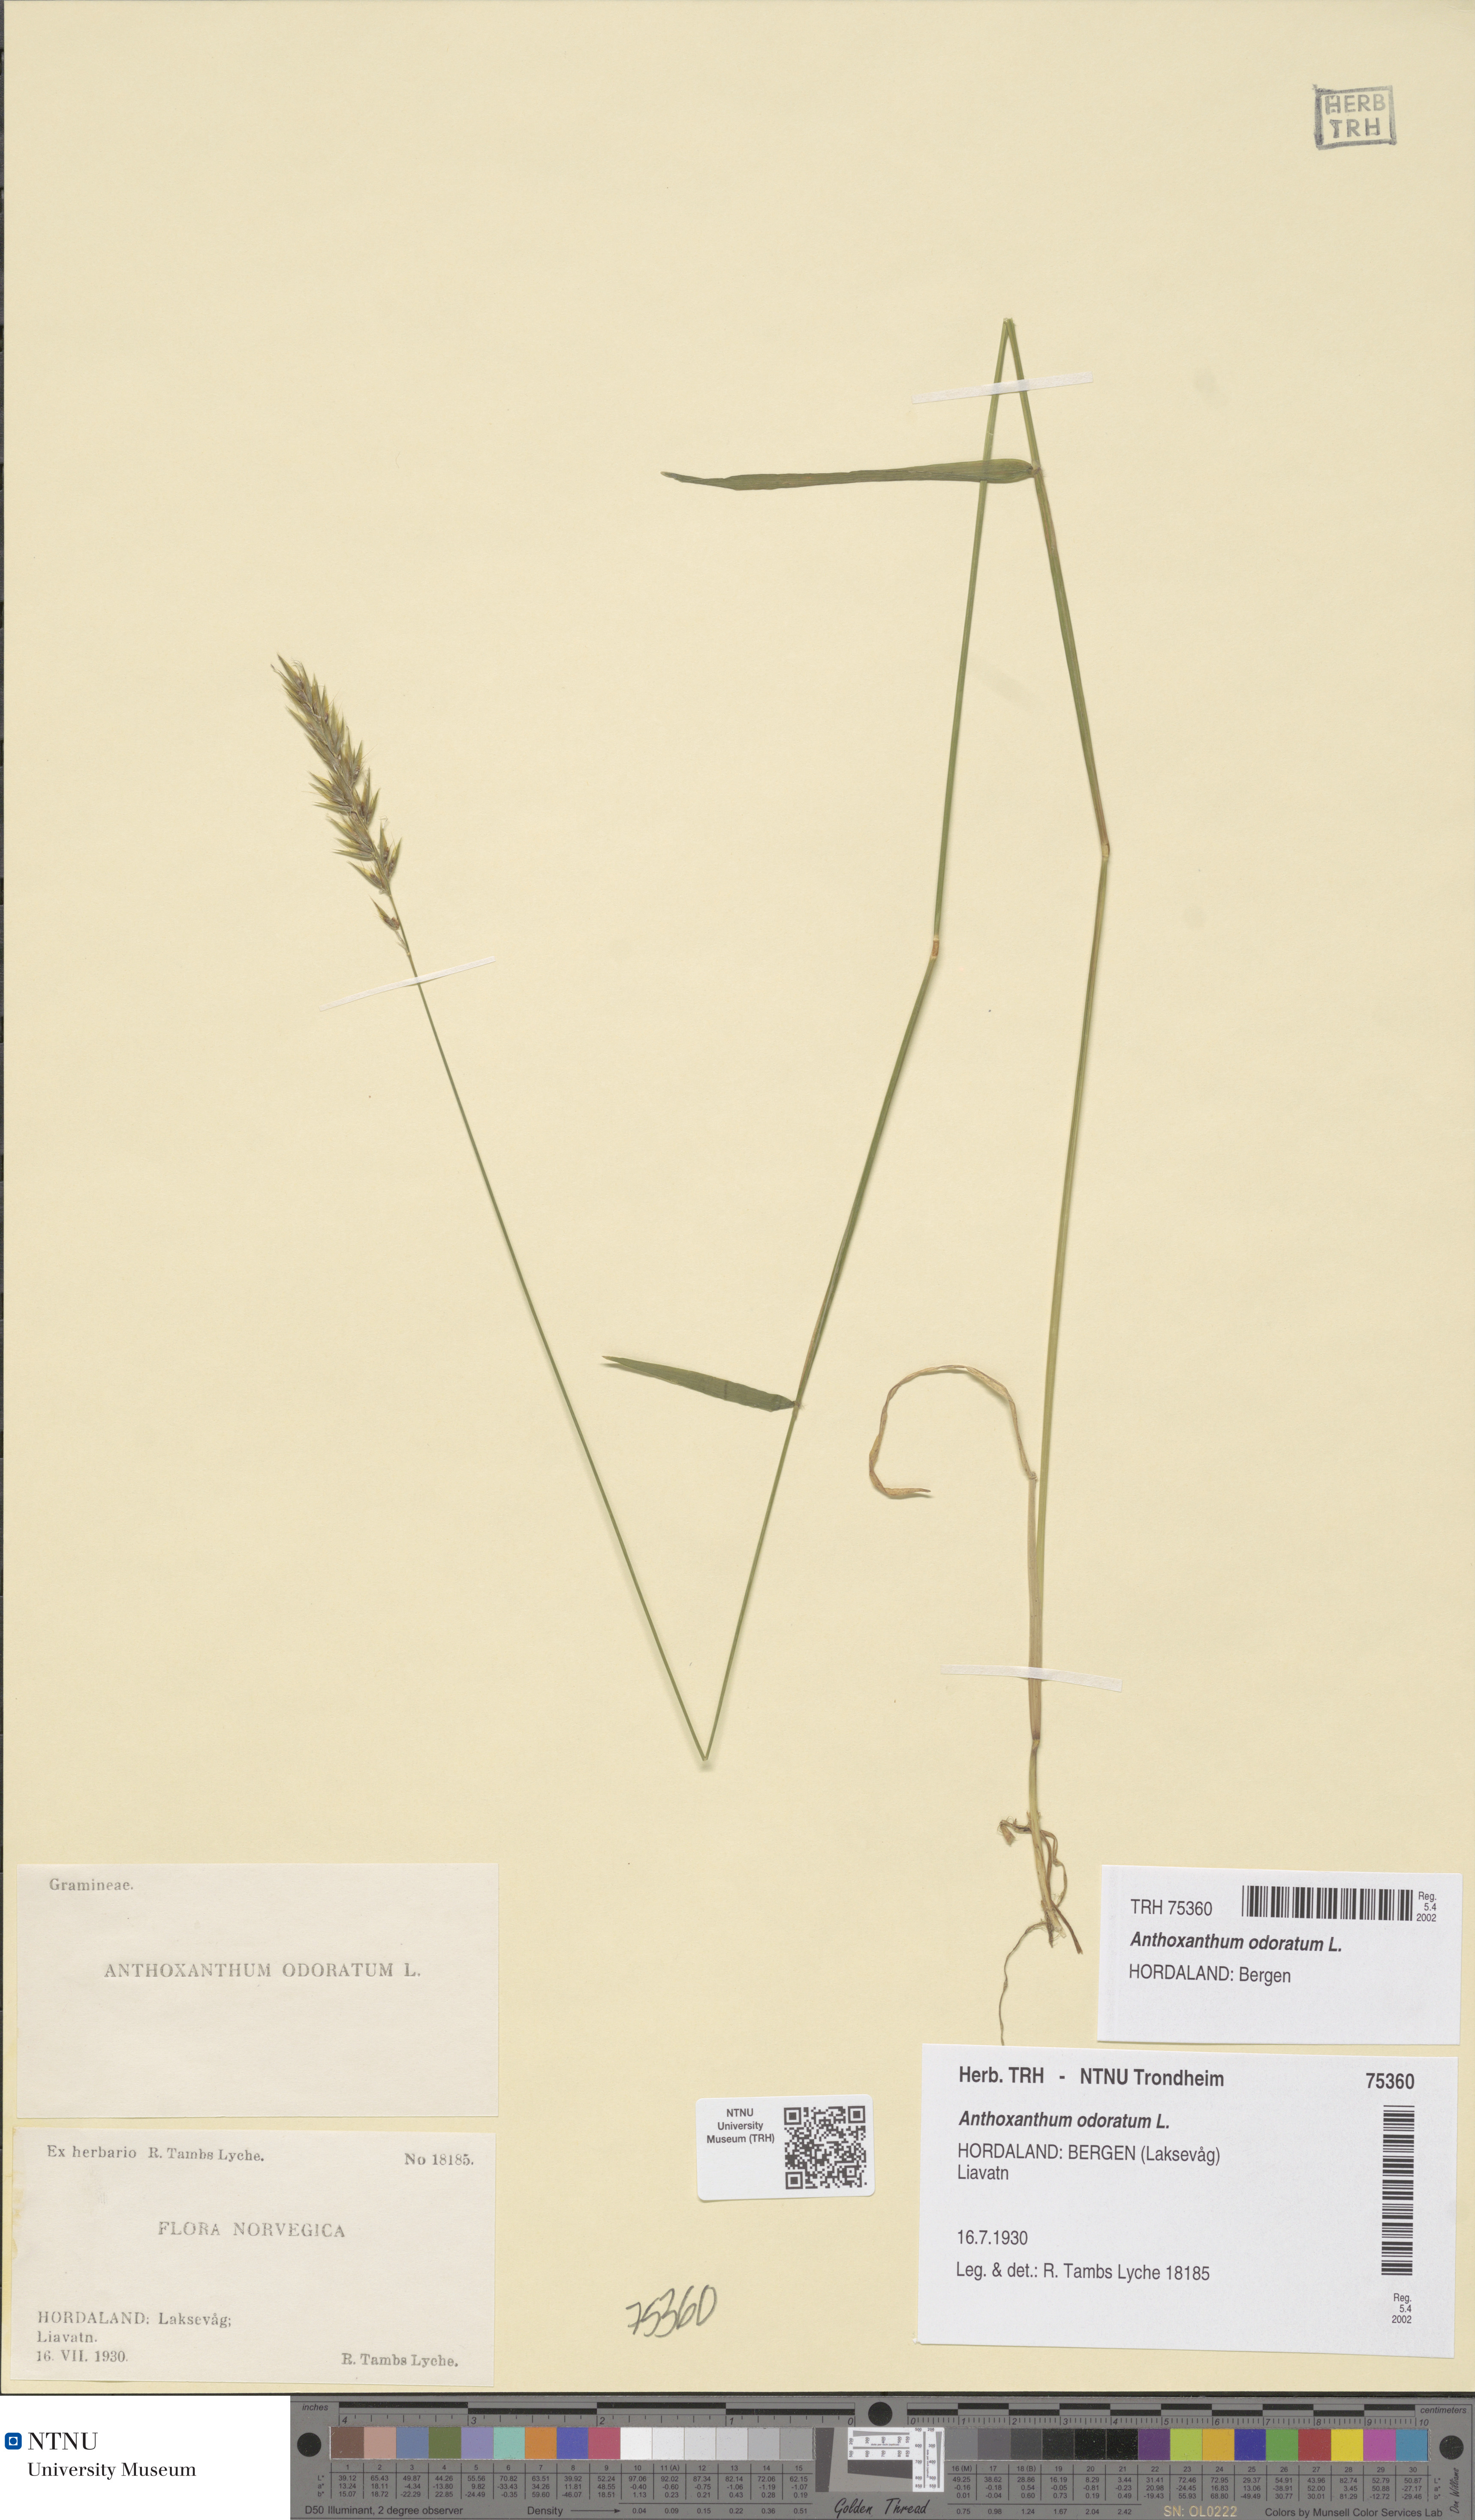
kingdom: Plantae
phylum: Tracheophyta
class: Liliopsida
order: Poales
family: Poaceae
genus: Anthoxanthum
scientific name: Anthoxanthum odoratum
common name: Sweet vernalgrass
